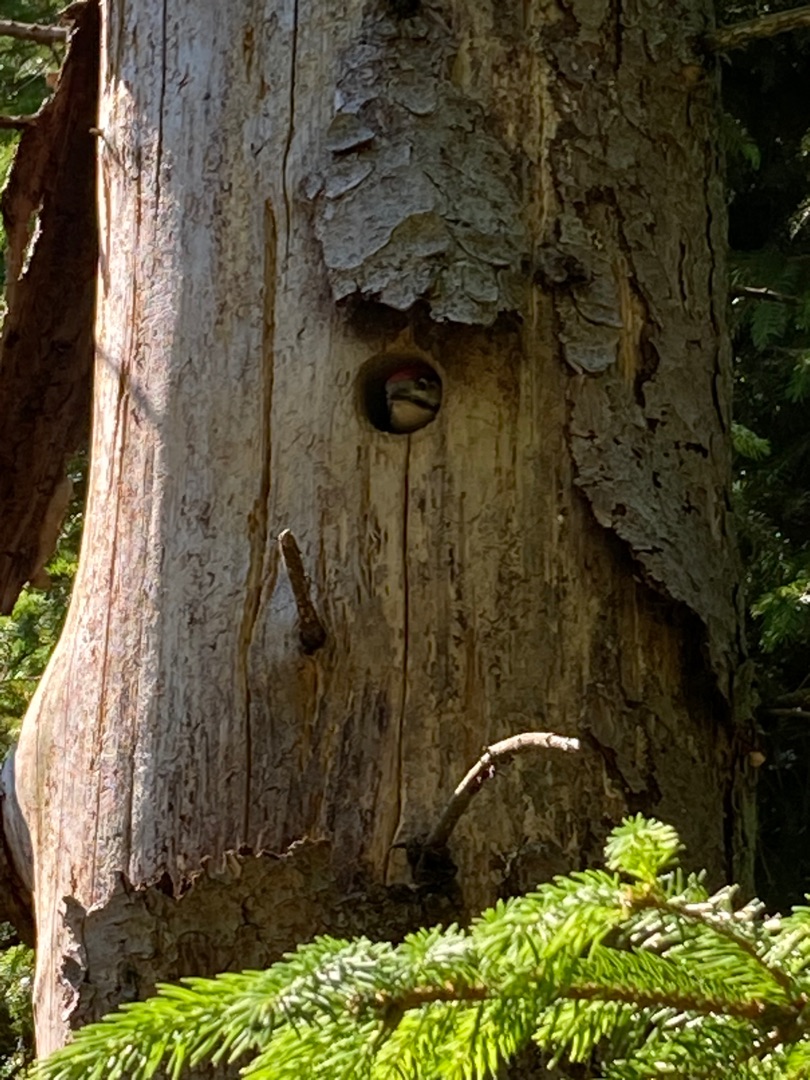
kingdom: Animalia
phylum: Chordata
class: Aves
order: Piciformes
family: Picidae
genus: Dendrocopos
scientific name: Dendrocopos major
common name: Stor flagspætte
